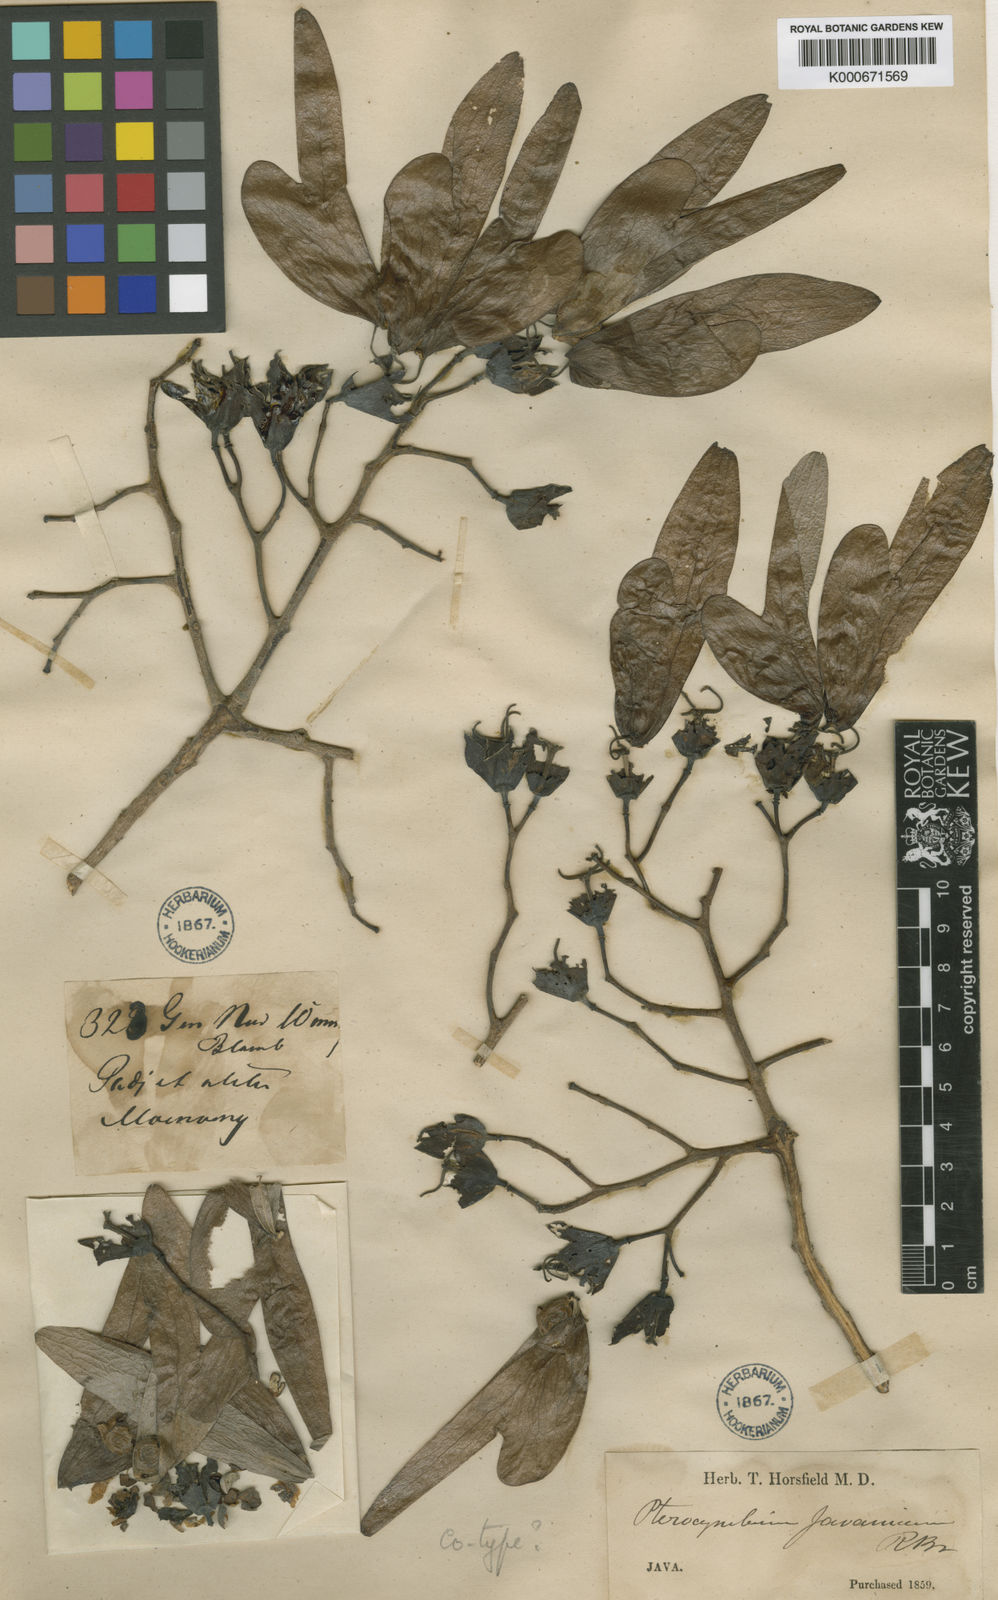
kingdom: Plantae
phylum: Tracheophyta
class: Magnoliopsida
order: Malvales
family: Malvaceae
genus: Pterocymbium
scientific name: Pterocymbium tinctorium
